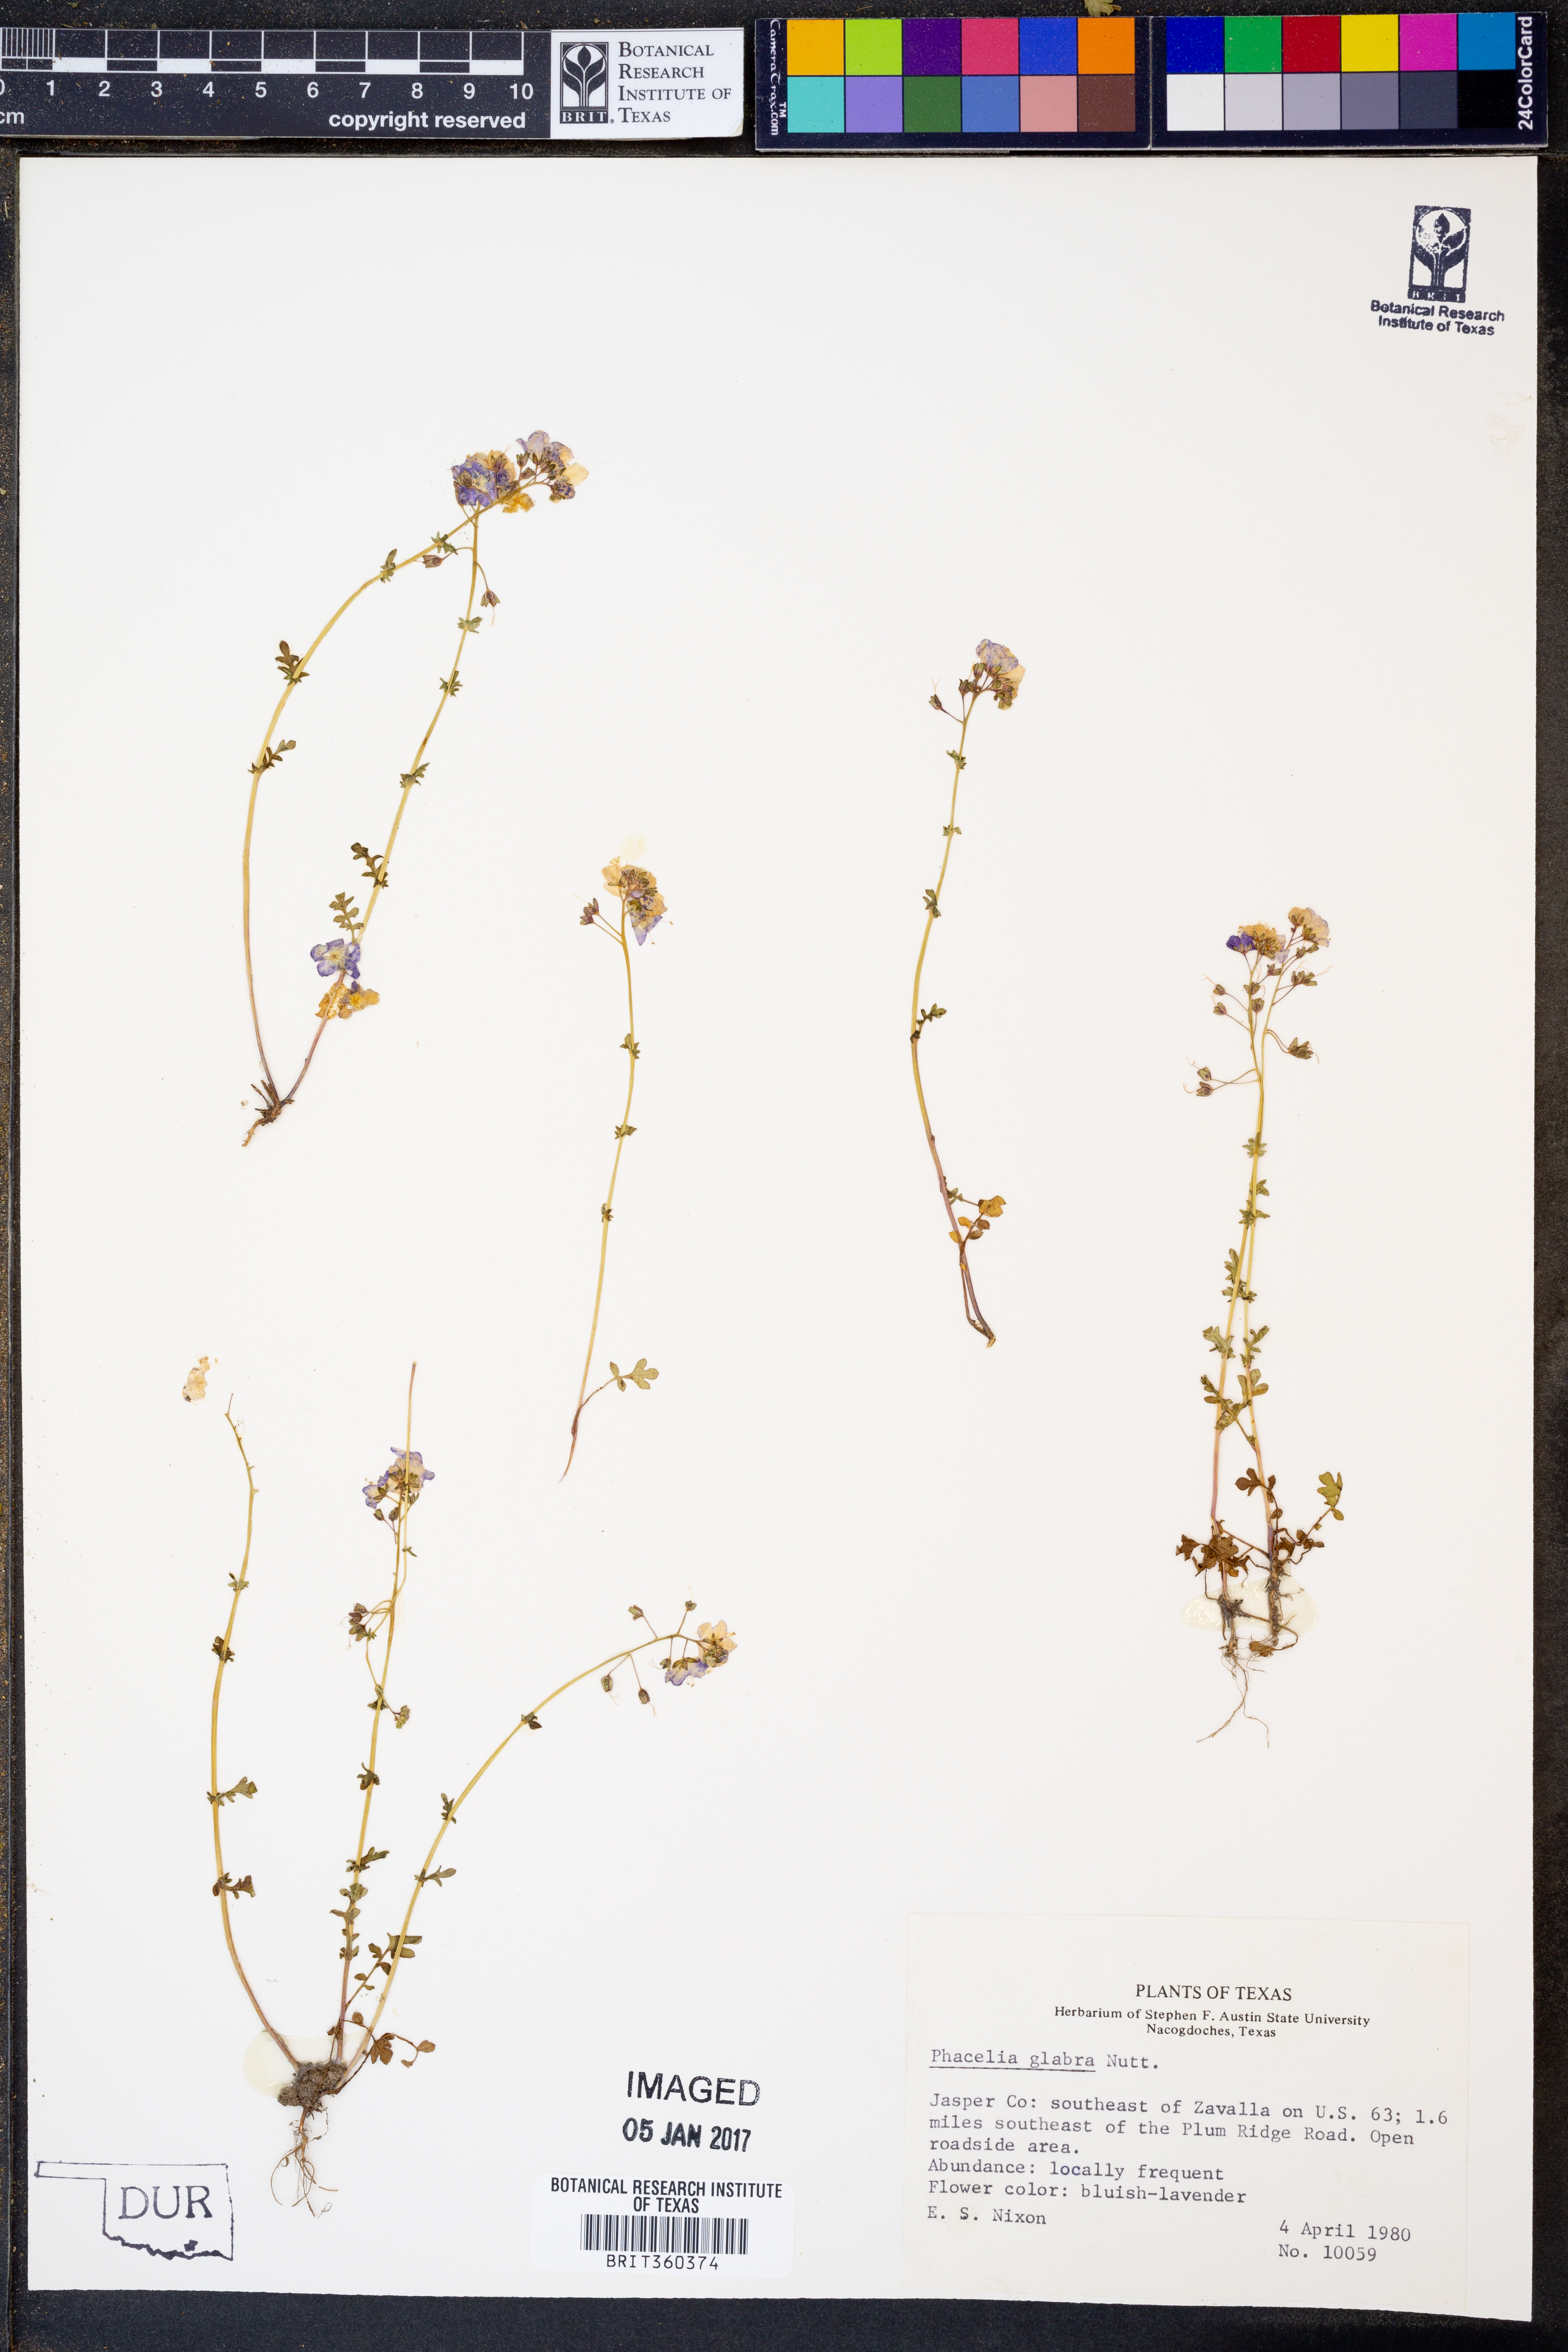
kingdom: Plantae
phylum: Tracheophyta
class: Magnoliopsida
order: Boraginales
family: Hydrophyllaceae
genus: Phacelia
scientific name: Phacelia glabra
